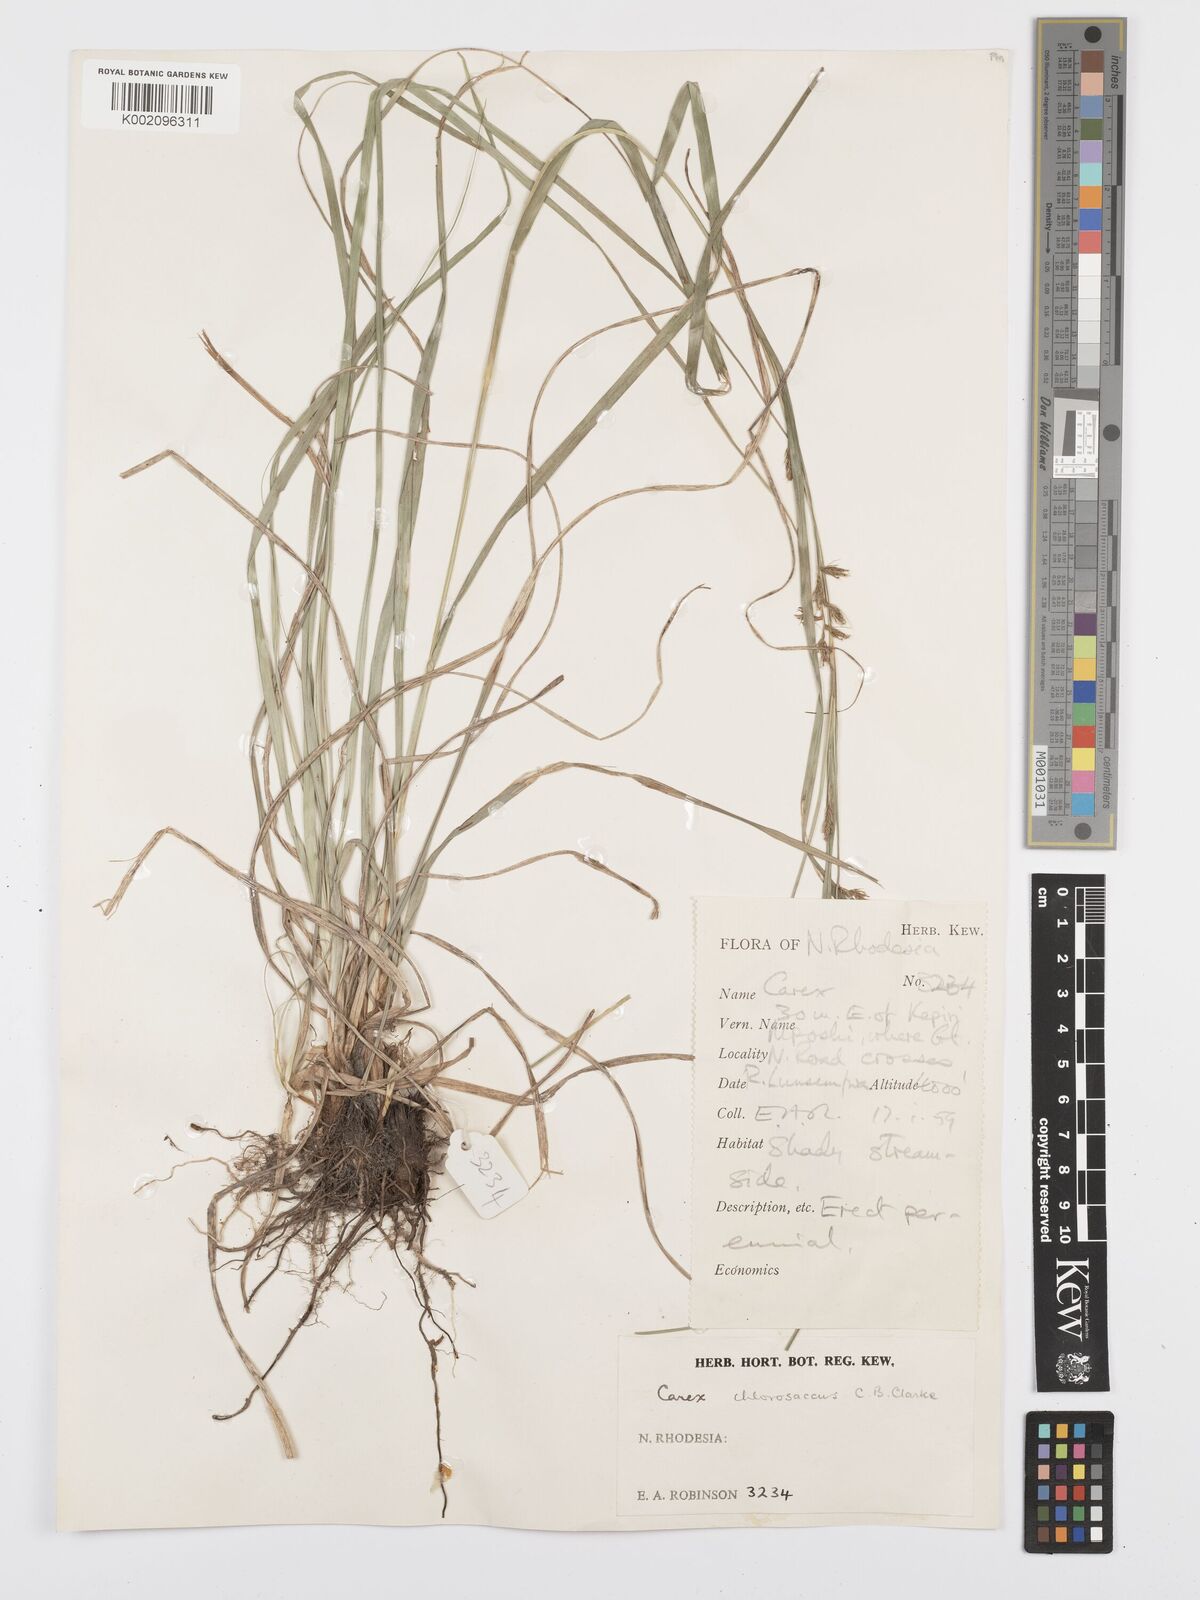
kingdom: Plantae
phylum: Tracheophyta
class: Liliopsida
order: Poales
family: Cyperaceae
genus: Carex
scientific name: Carex chlorosaccus
